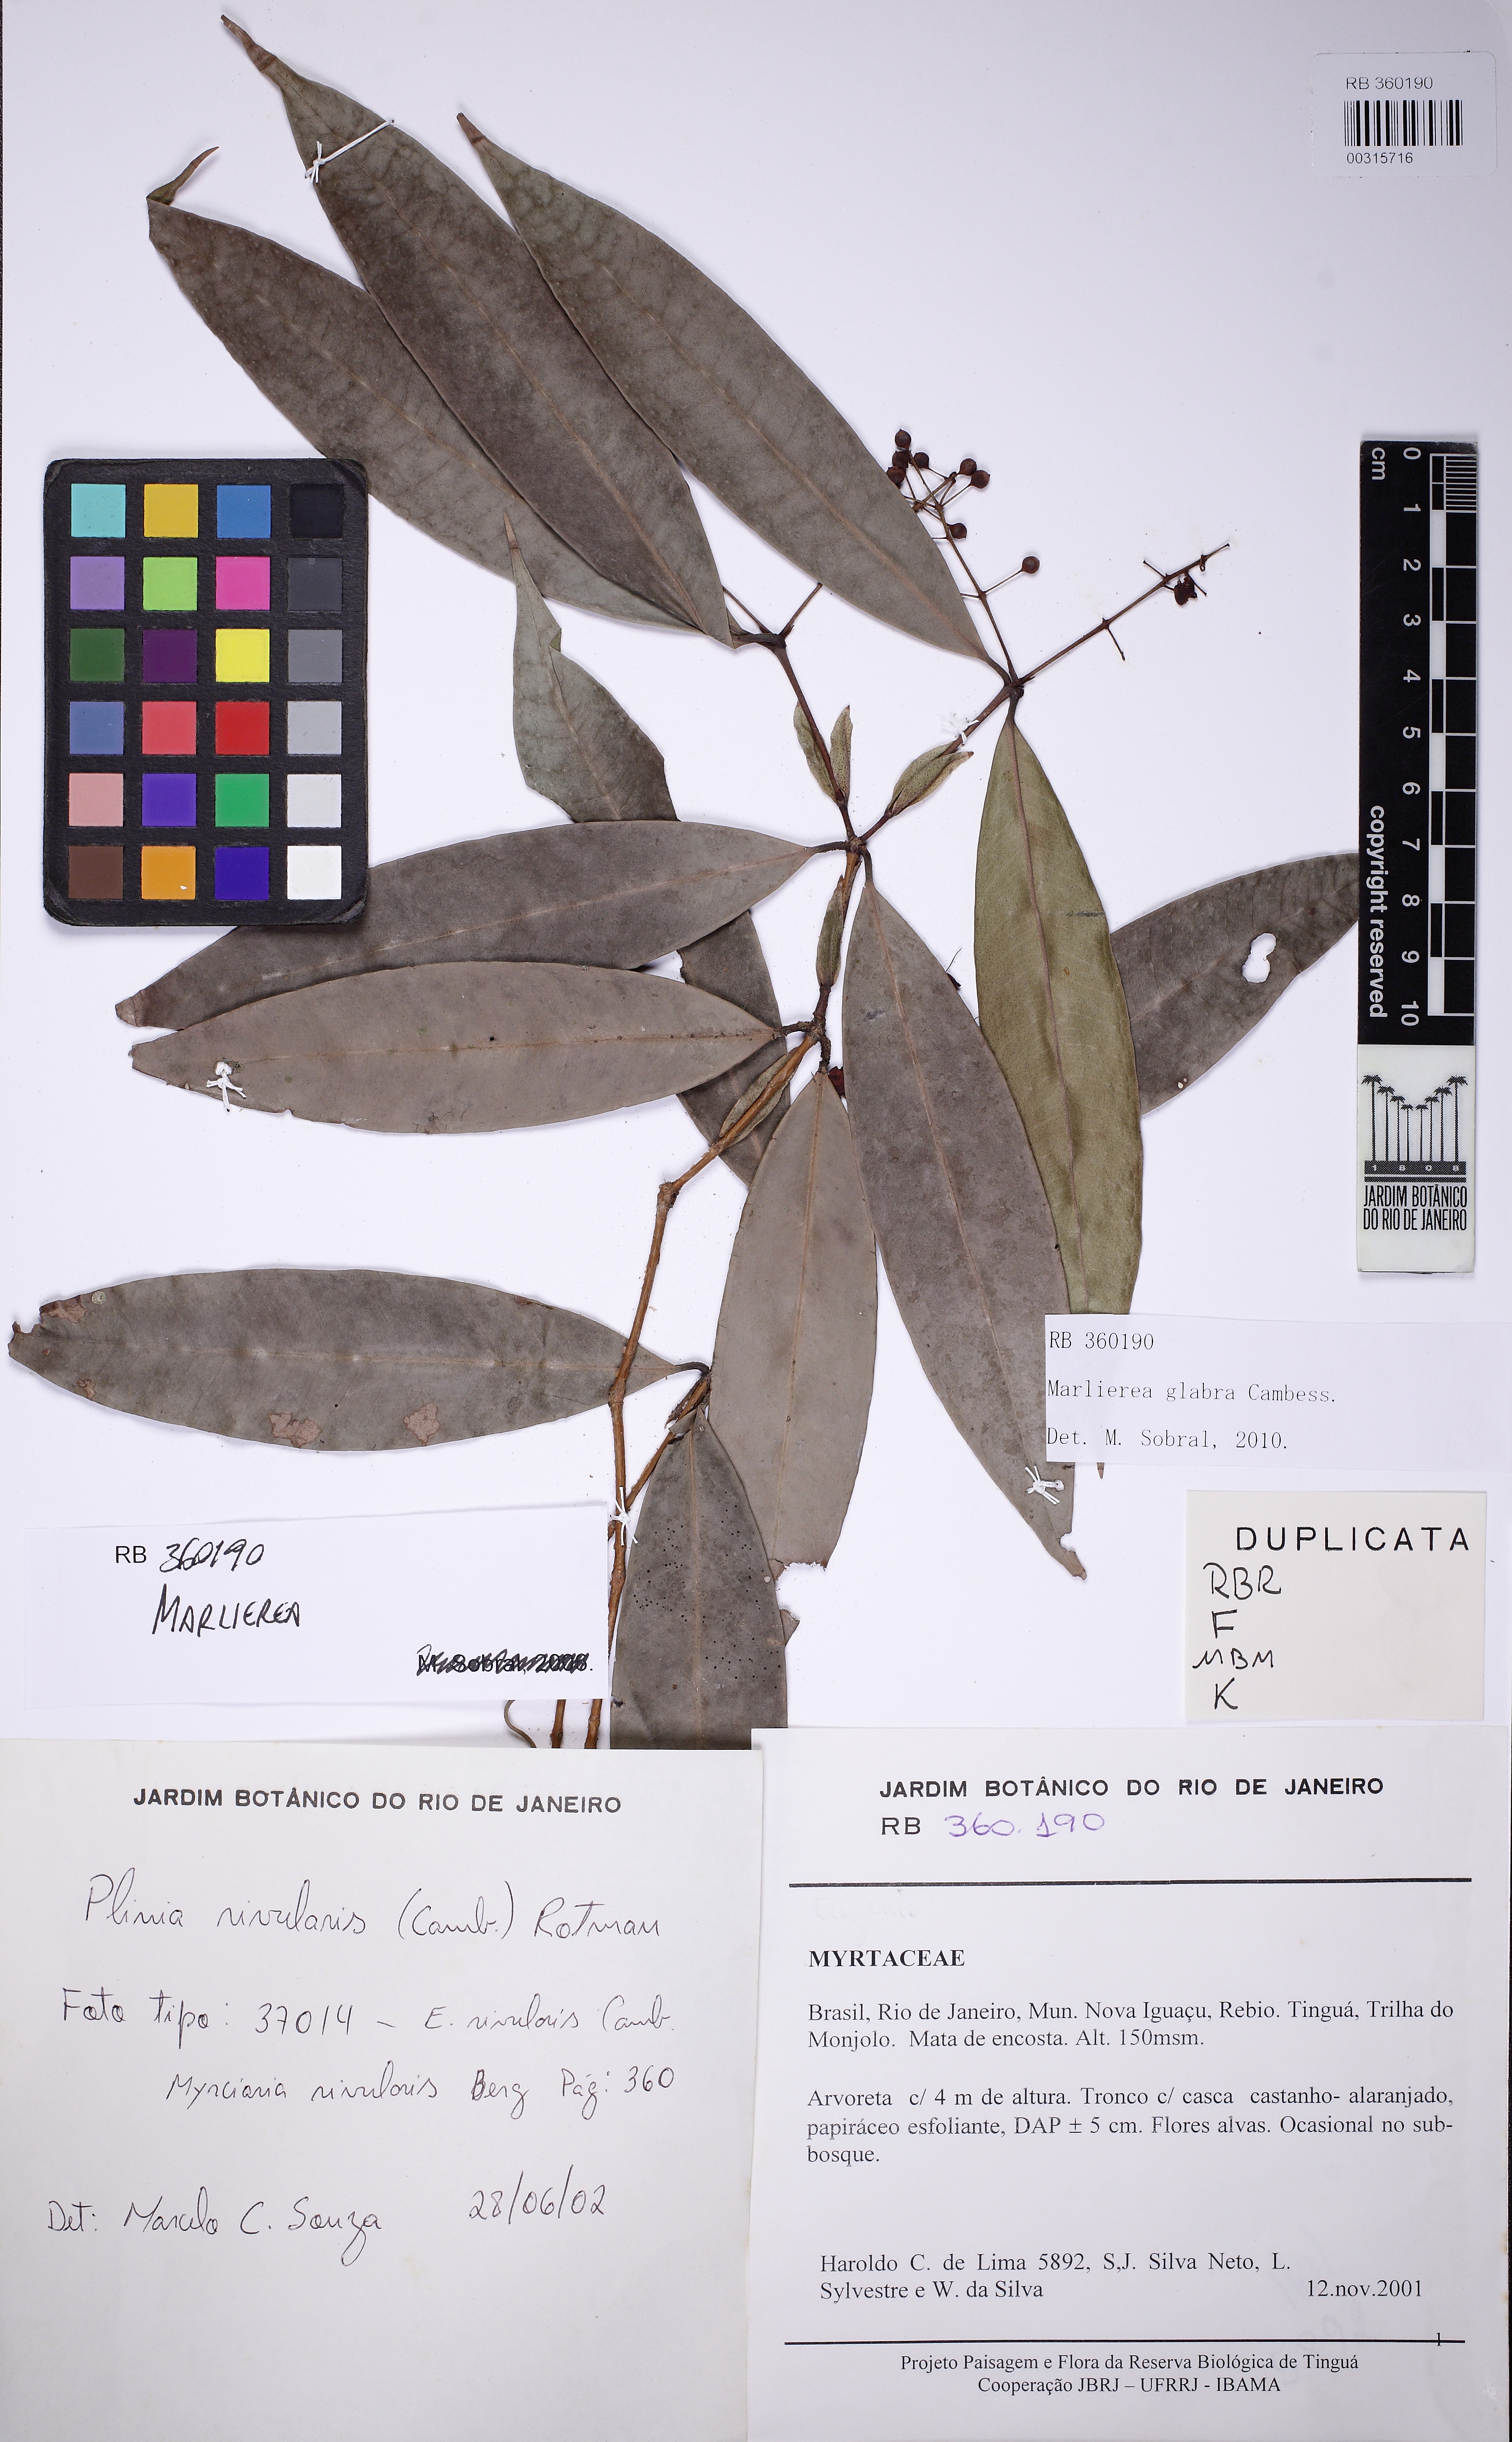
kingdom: Plantae
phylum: Tracheophyta
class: Magnoliopsida
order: Myrtales
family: Myrtaceae
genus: Myrcia
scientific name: Myrcia neoglabra
